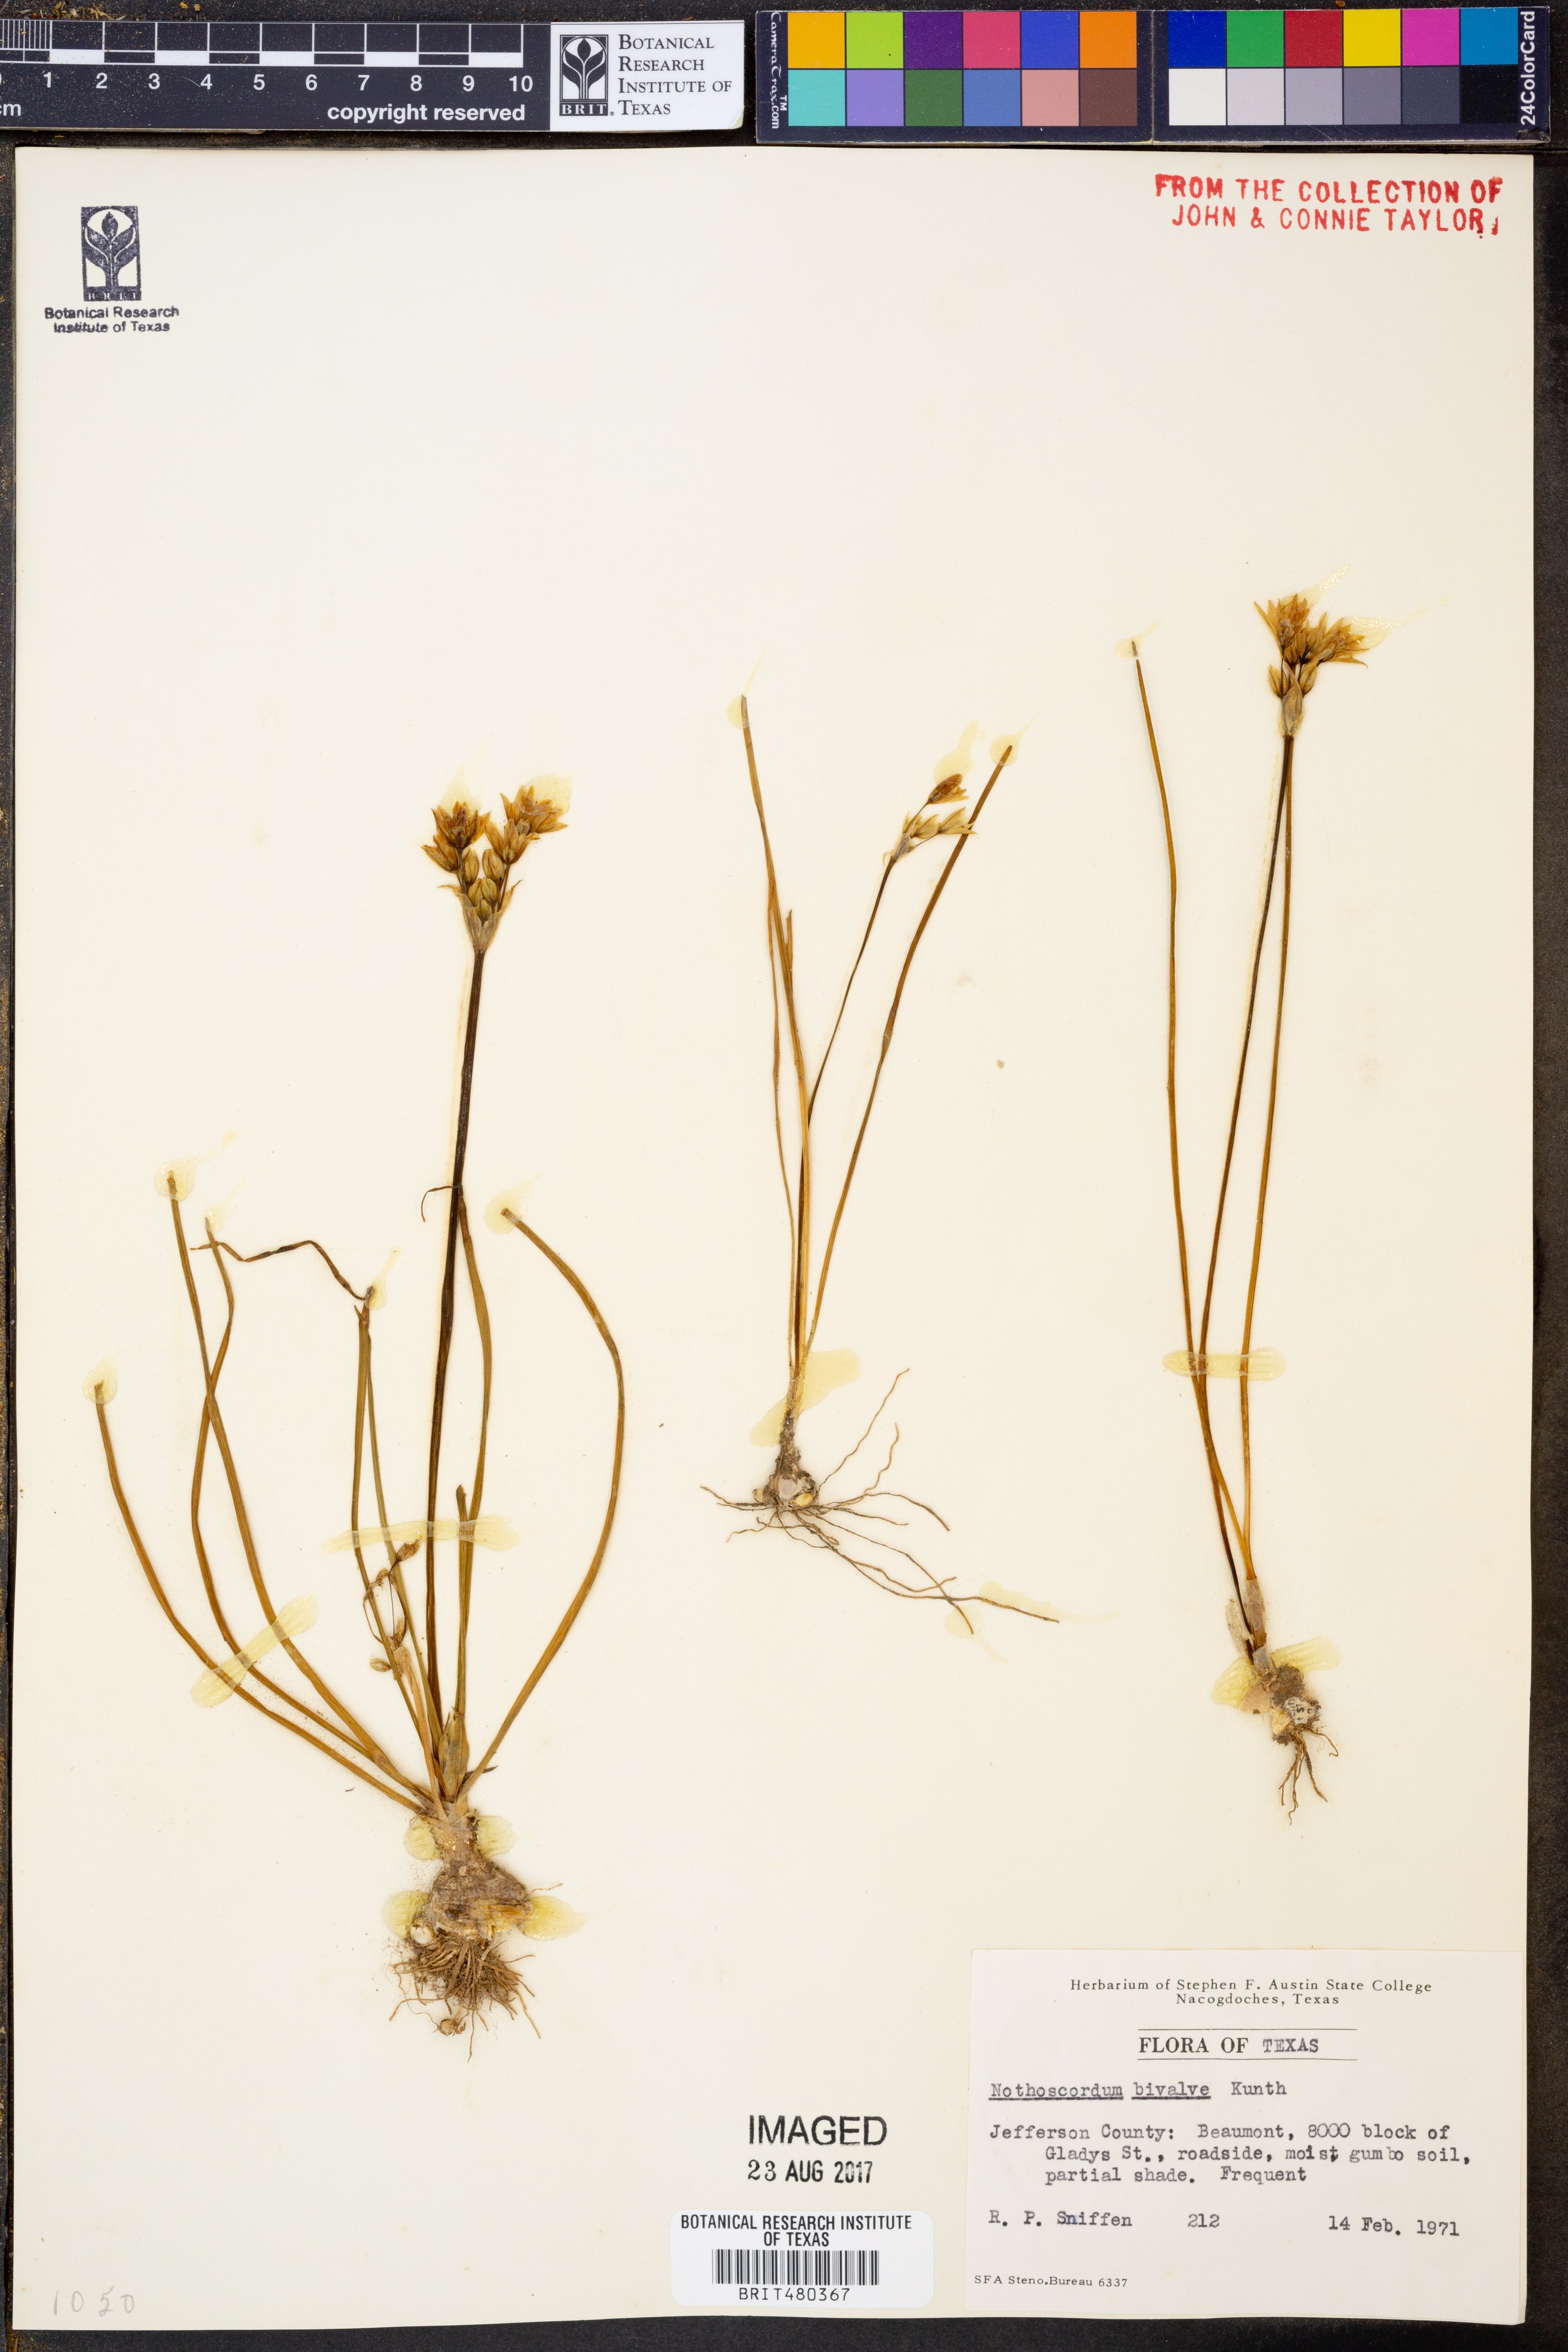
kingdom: Plantae
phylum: Tracheophyta
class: Liliopsida
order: Asparagales
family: Amaryllidaceae
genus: Nothoscordum
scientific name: Nothoscordum bivalve
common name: Crow-poison
